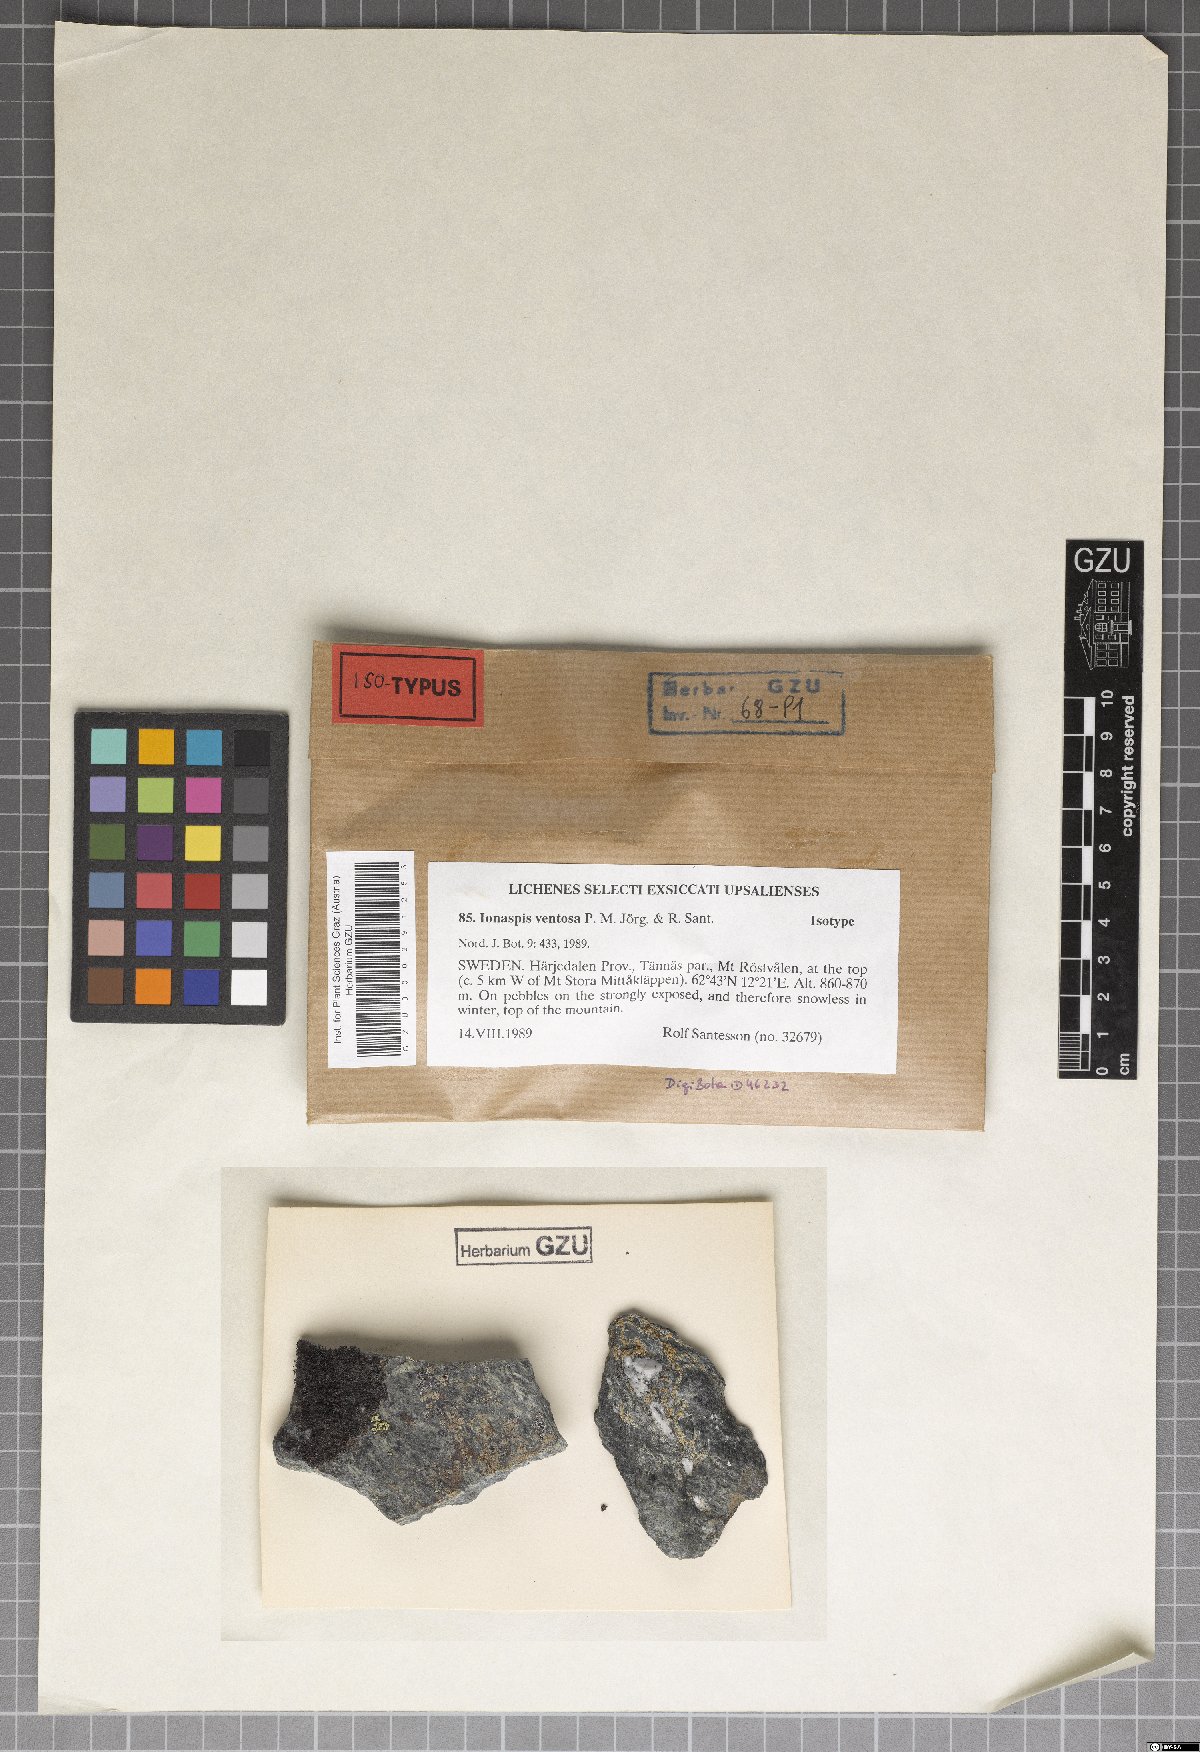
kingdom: Fungi
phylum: Ascomycota
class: Lecanoromycetes
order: Hymeneliales
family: Hymeneliaceae
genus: Ionaspis
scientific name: Ionaspis ventosa
